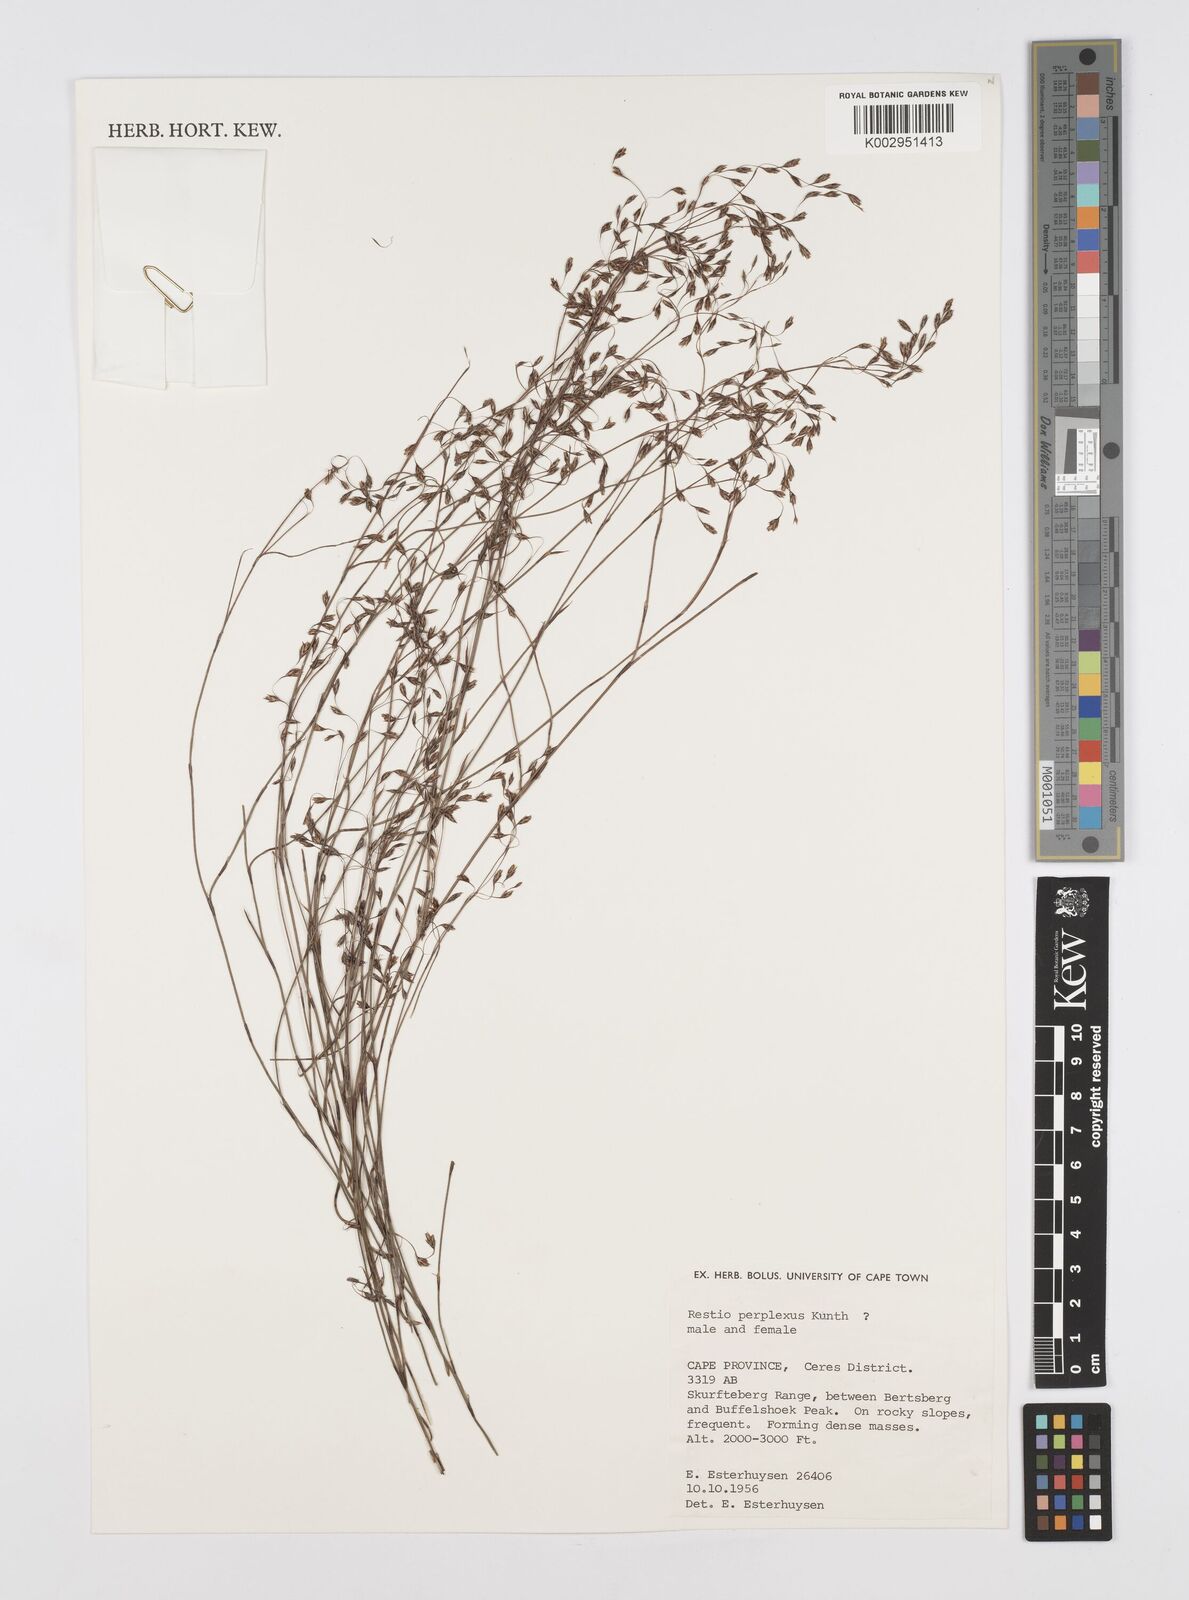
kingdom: Plantae
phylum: Tracheophyta
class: Liliopsida
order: Poales
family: Restionaceae
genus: Restio
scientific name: Restio perplexus
